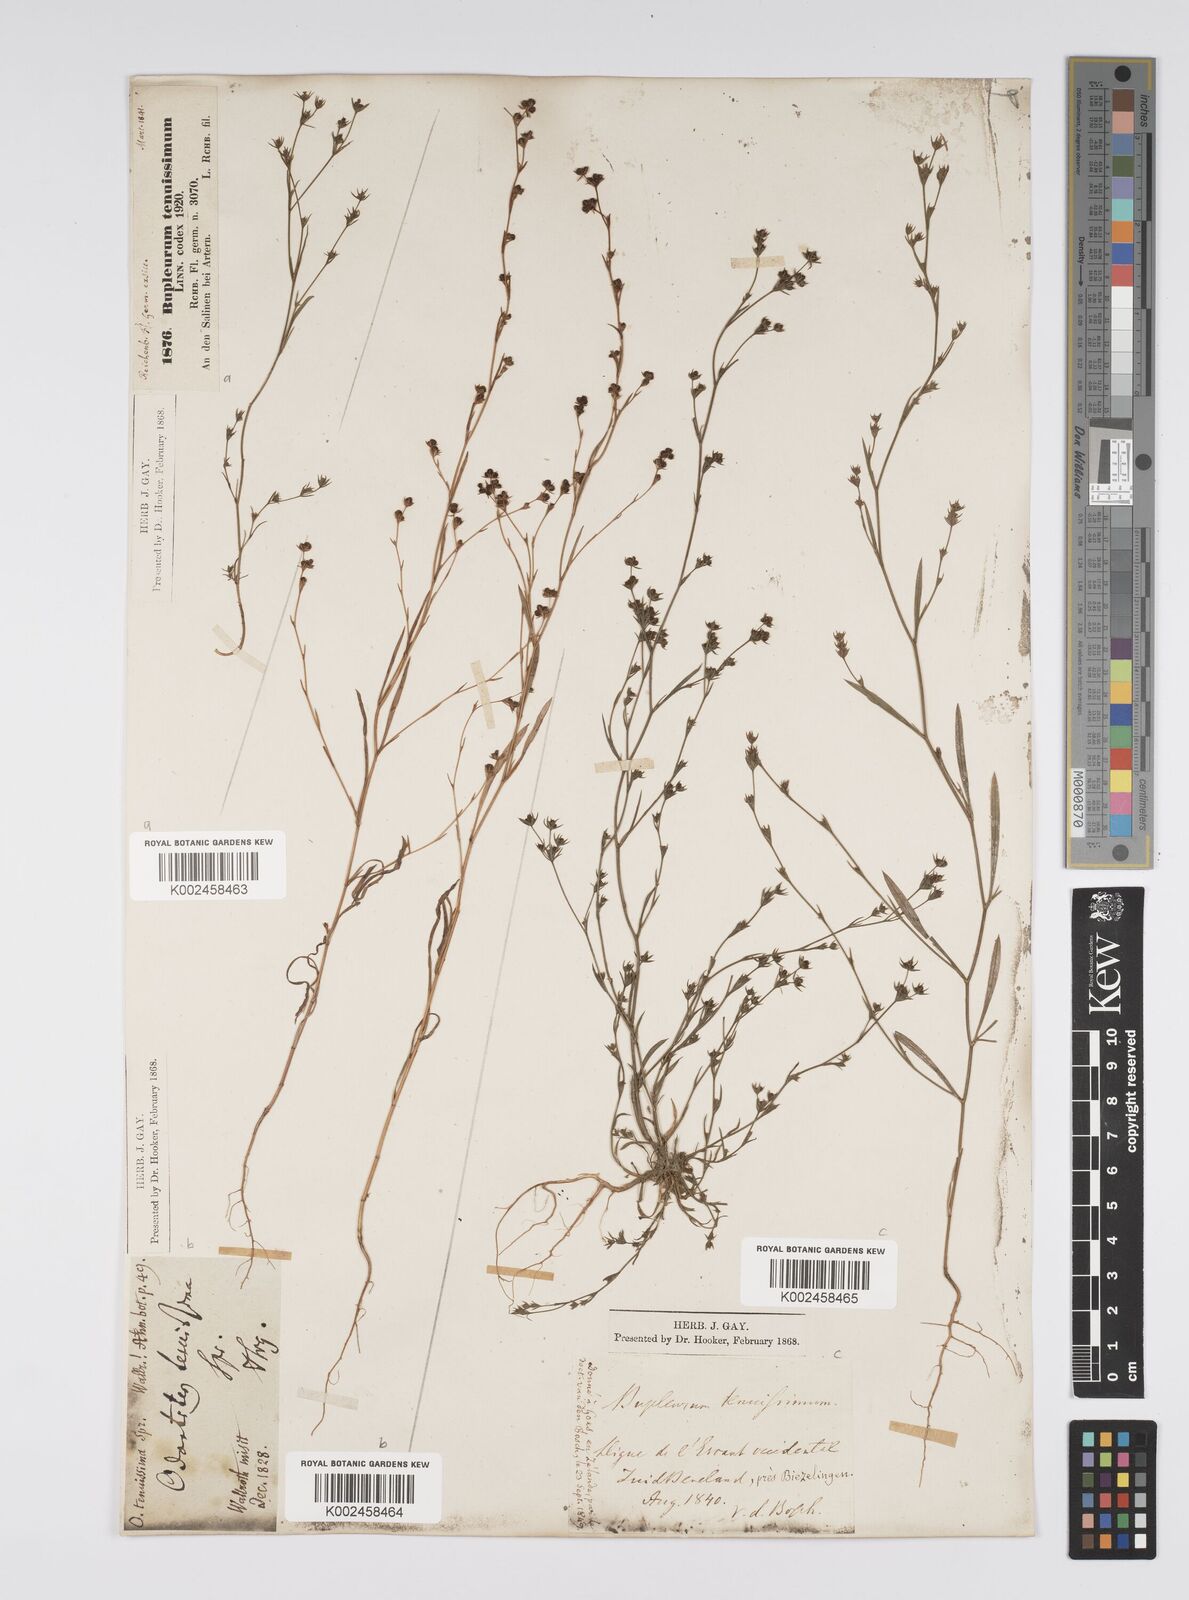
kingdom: Plantae
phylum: Tracheophyta
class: Magnoliopsida
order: Apiales
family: Apiaceae
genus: Bupleurum
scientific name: Bupleurum tenuissimum
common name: Slender hare's-ear
